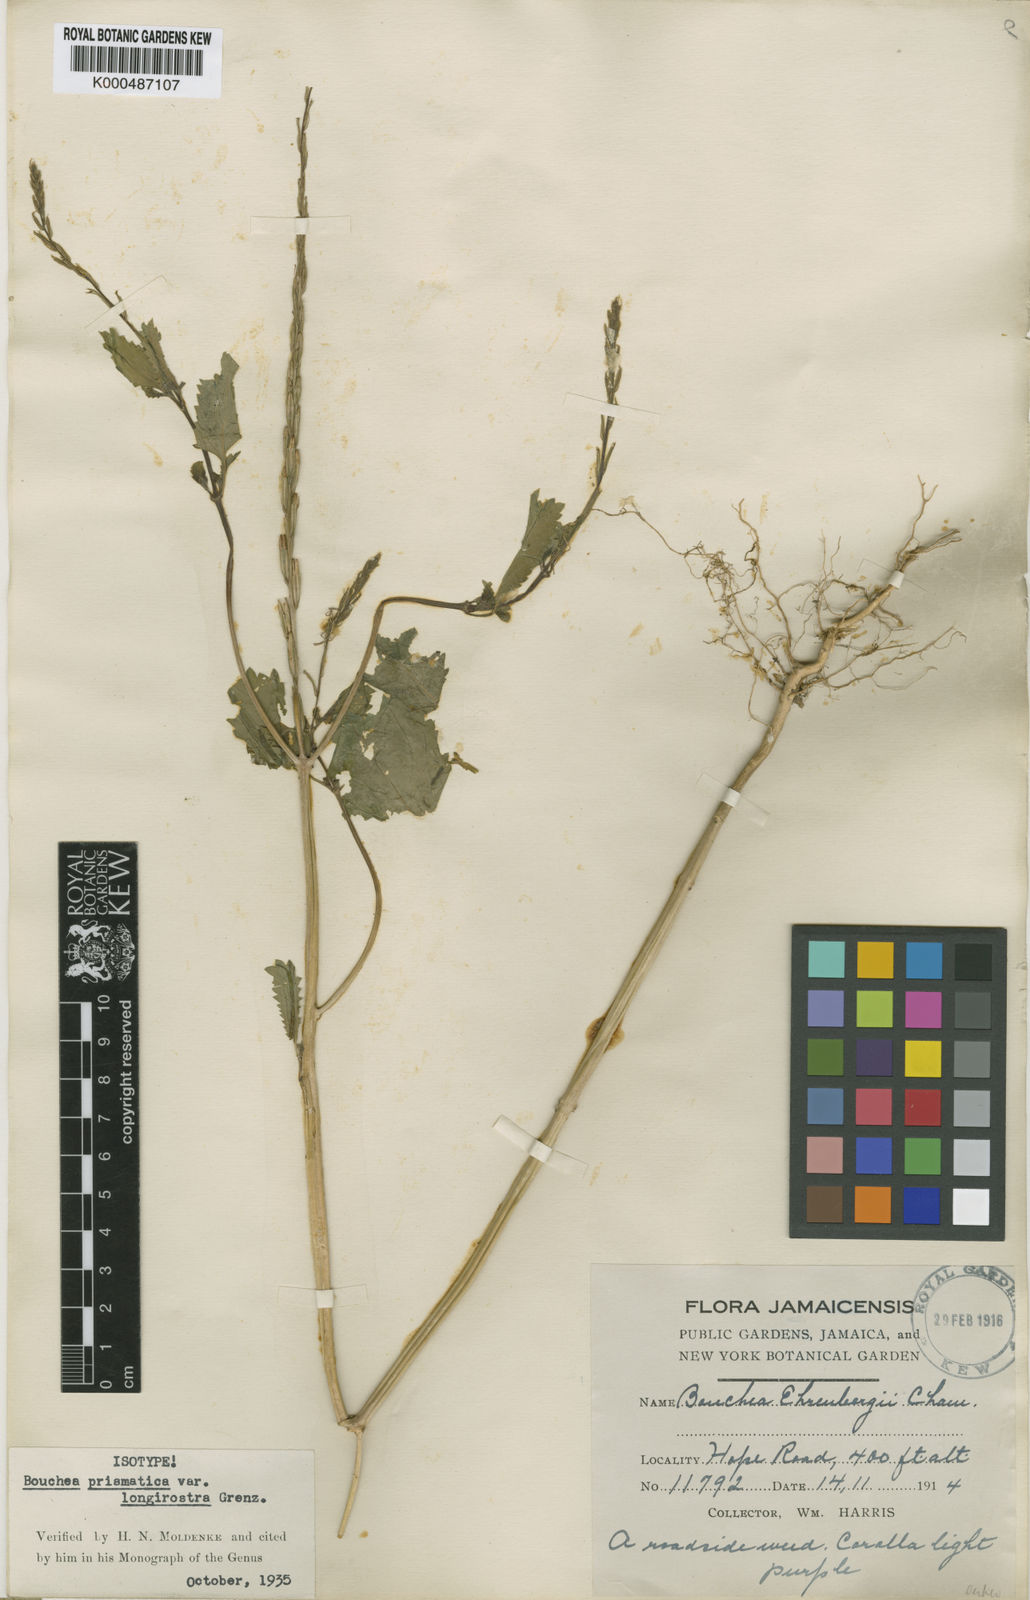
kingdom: Plantae
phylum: Tracheophyta
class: Magnoliopsida
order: Lamiales
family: Verbenaceae
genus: Bouchea
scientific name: Bouchea prismatica
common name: Vervine
